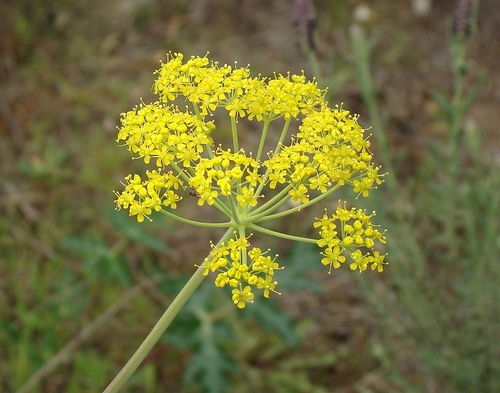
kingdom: Plantae
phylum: Tracheophyta
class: Magnoliopsida
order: Apiales
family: Apiaceae
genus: Thapsia
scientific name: Thapsia transtagana
